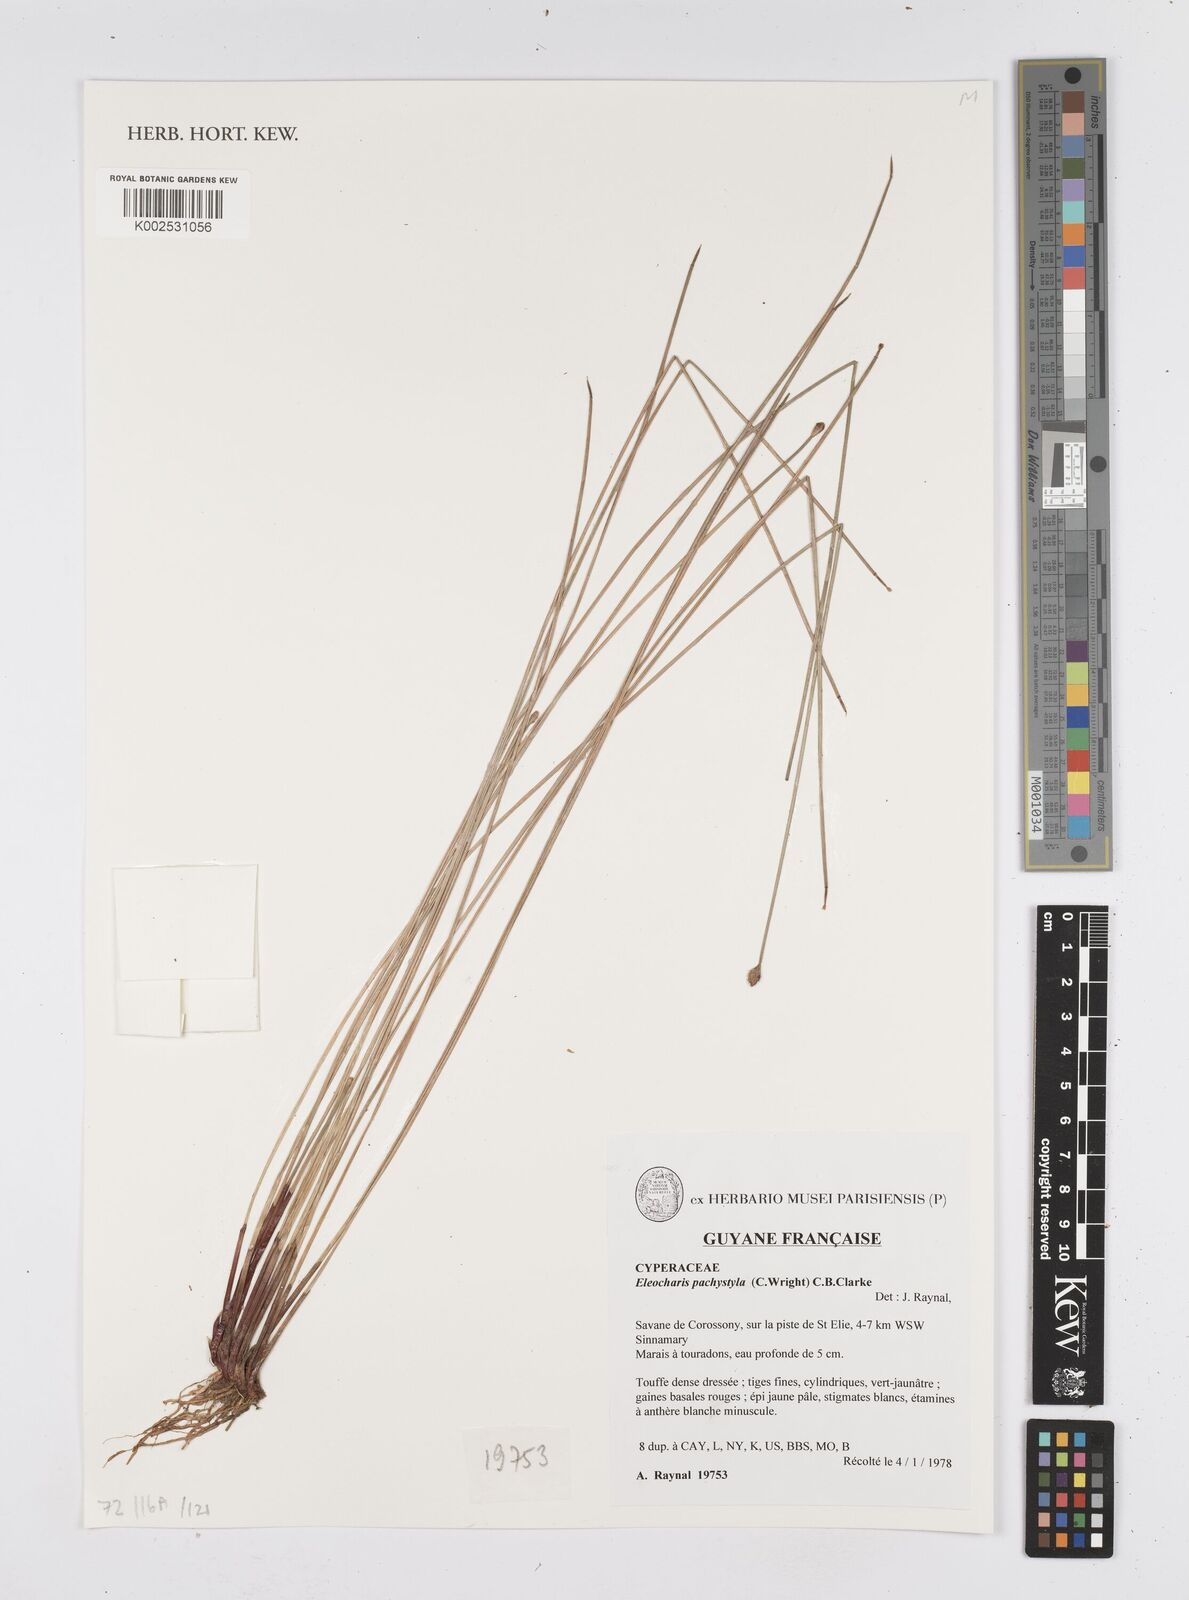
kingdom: Plantae
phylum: Tracheophyta
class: Liliopsida
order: Poales
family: Cyperaceae
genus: Eleocharis
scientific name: Eleocharis pachystyla
